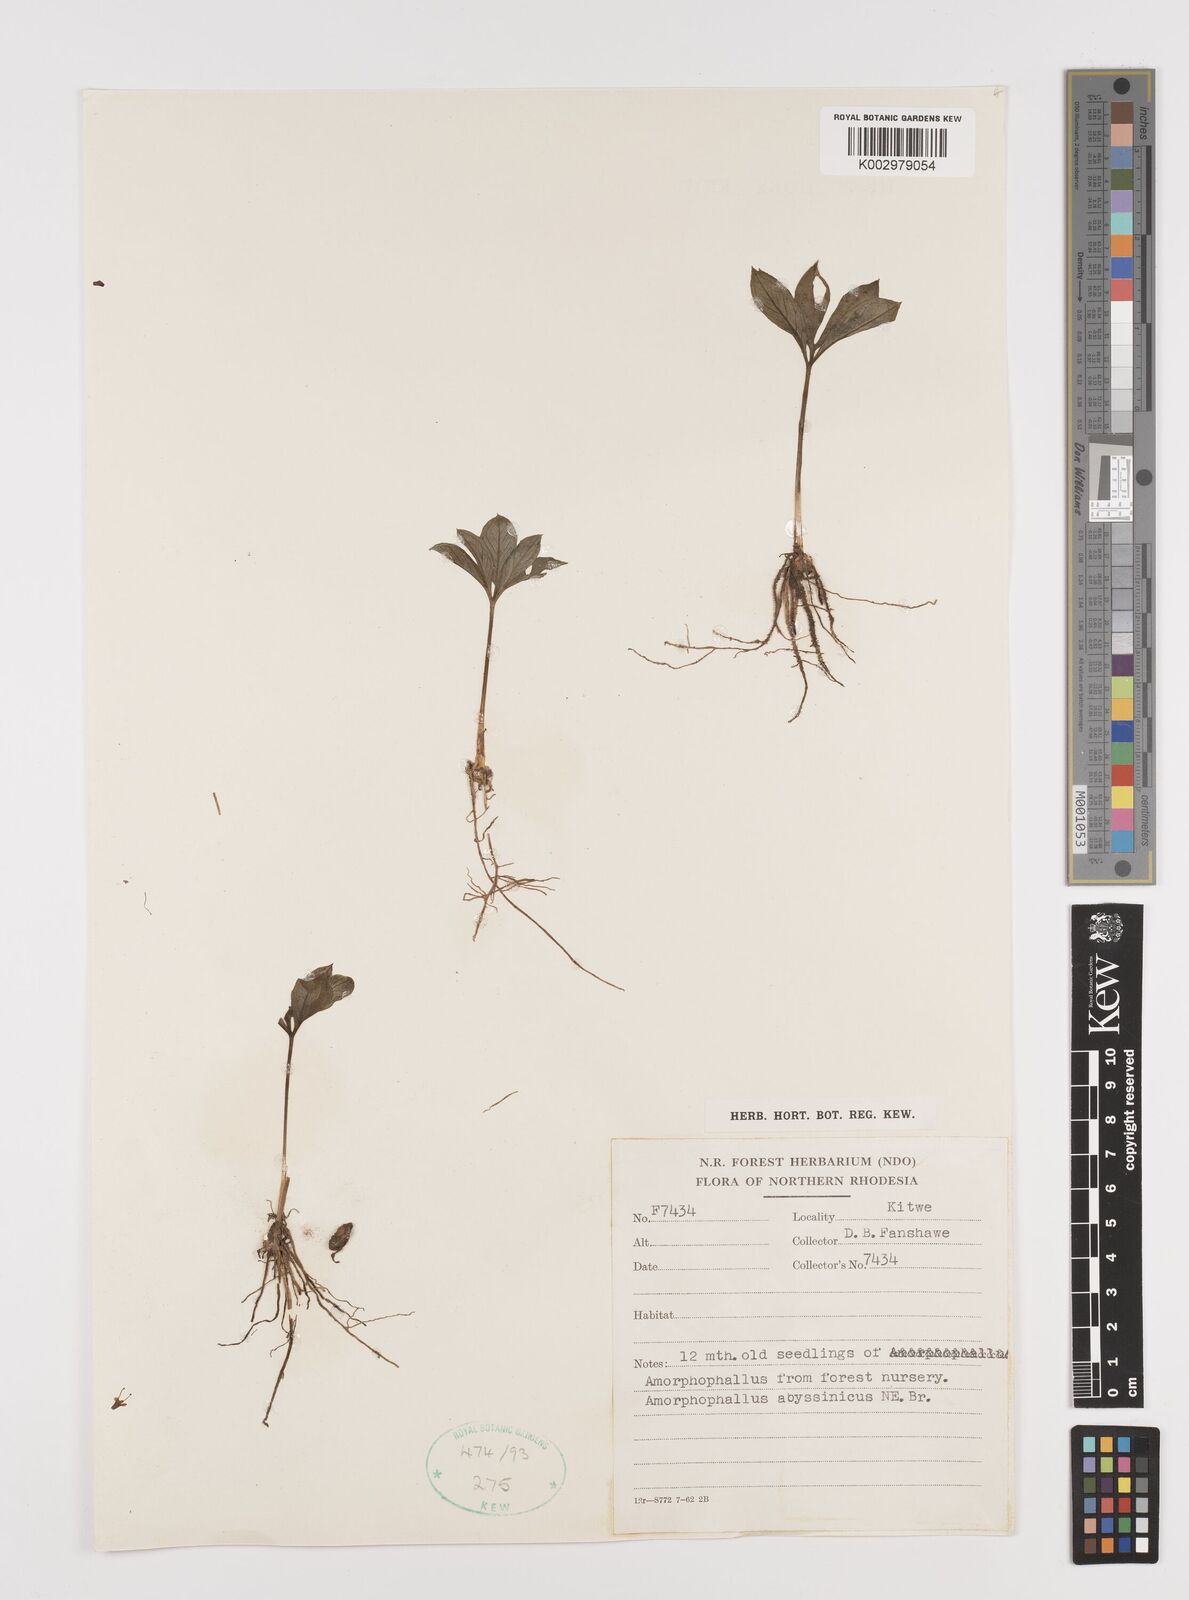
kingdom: Plantae
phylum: Tracheophyta
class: Liliopsida
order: Alismatales
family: Araceae
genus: Amorphophallus
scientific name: Amorphophallus abyssinicus
